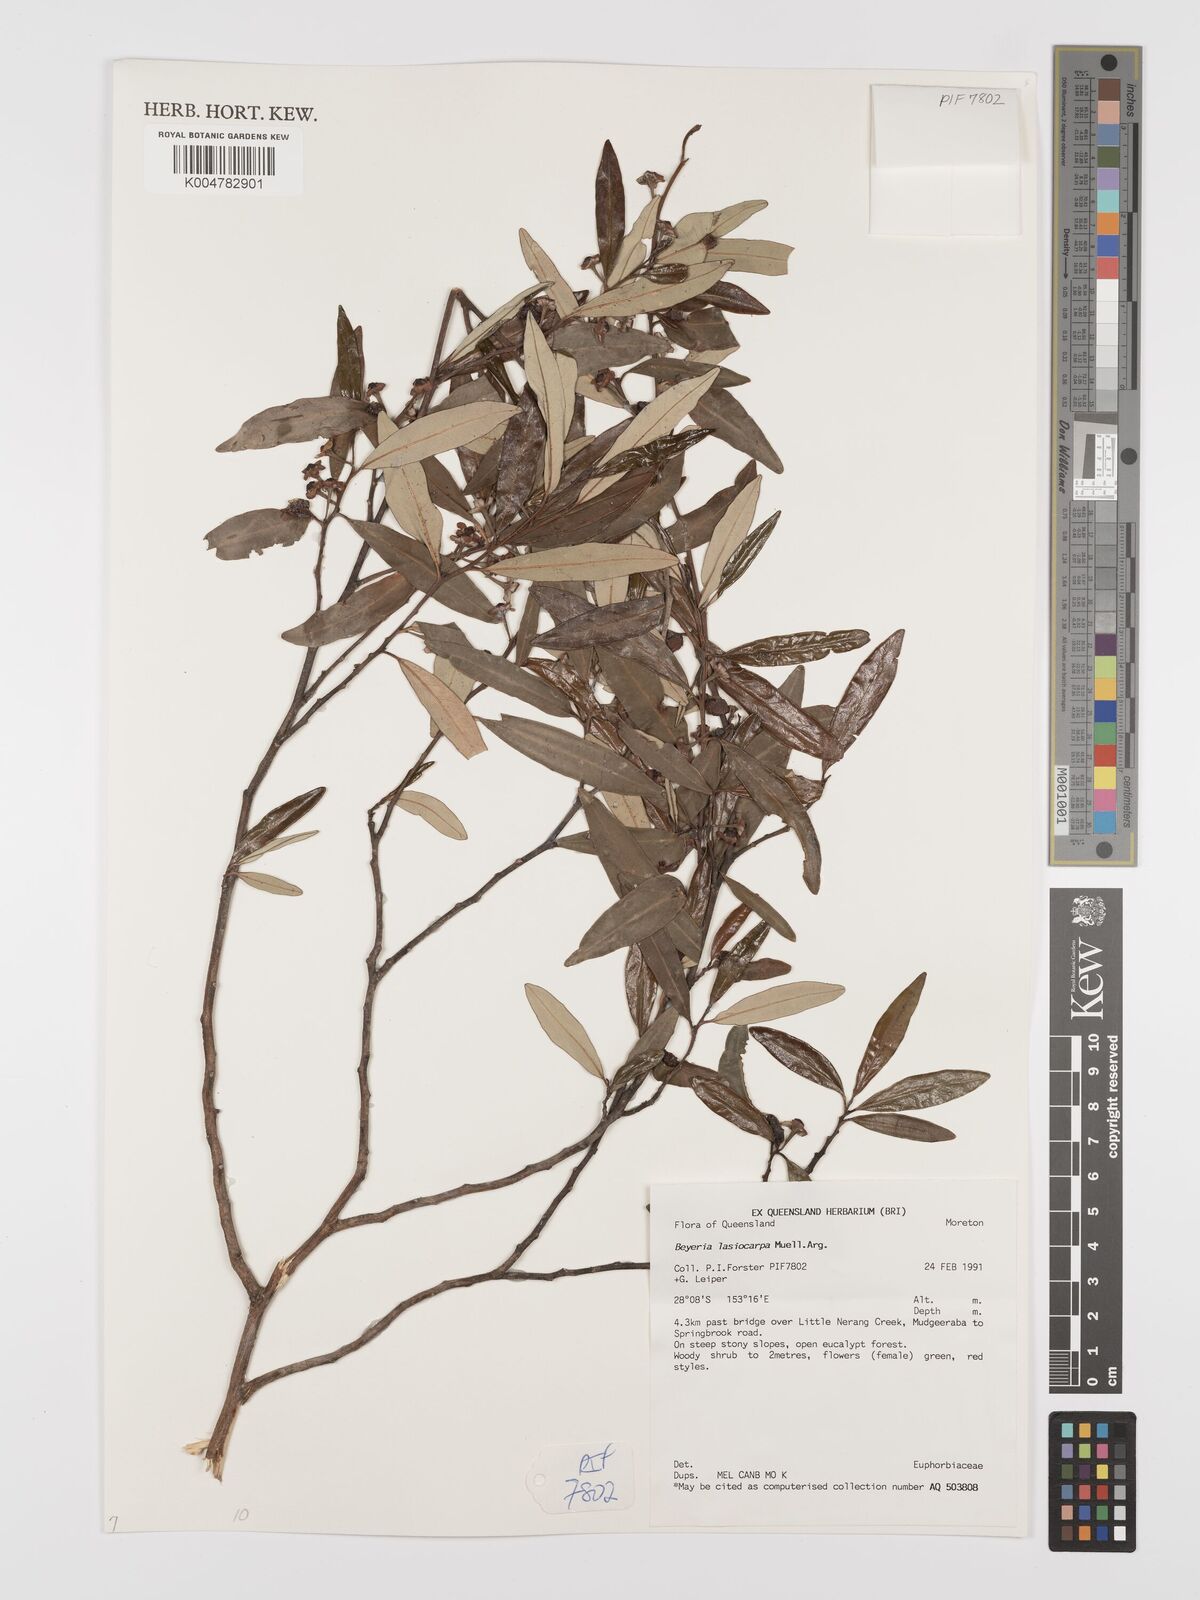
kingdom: Plantae
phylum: Tracheophyta
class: Magnoliopsida
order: Malpighiales
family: Euphorbiaceae
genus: Beyeria
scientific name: Beyeria lasiocarpa
